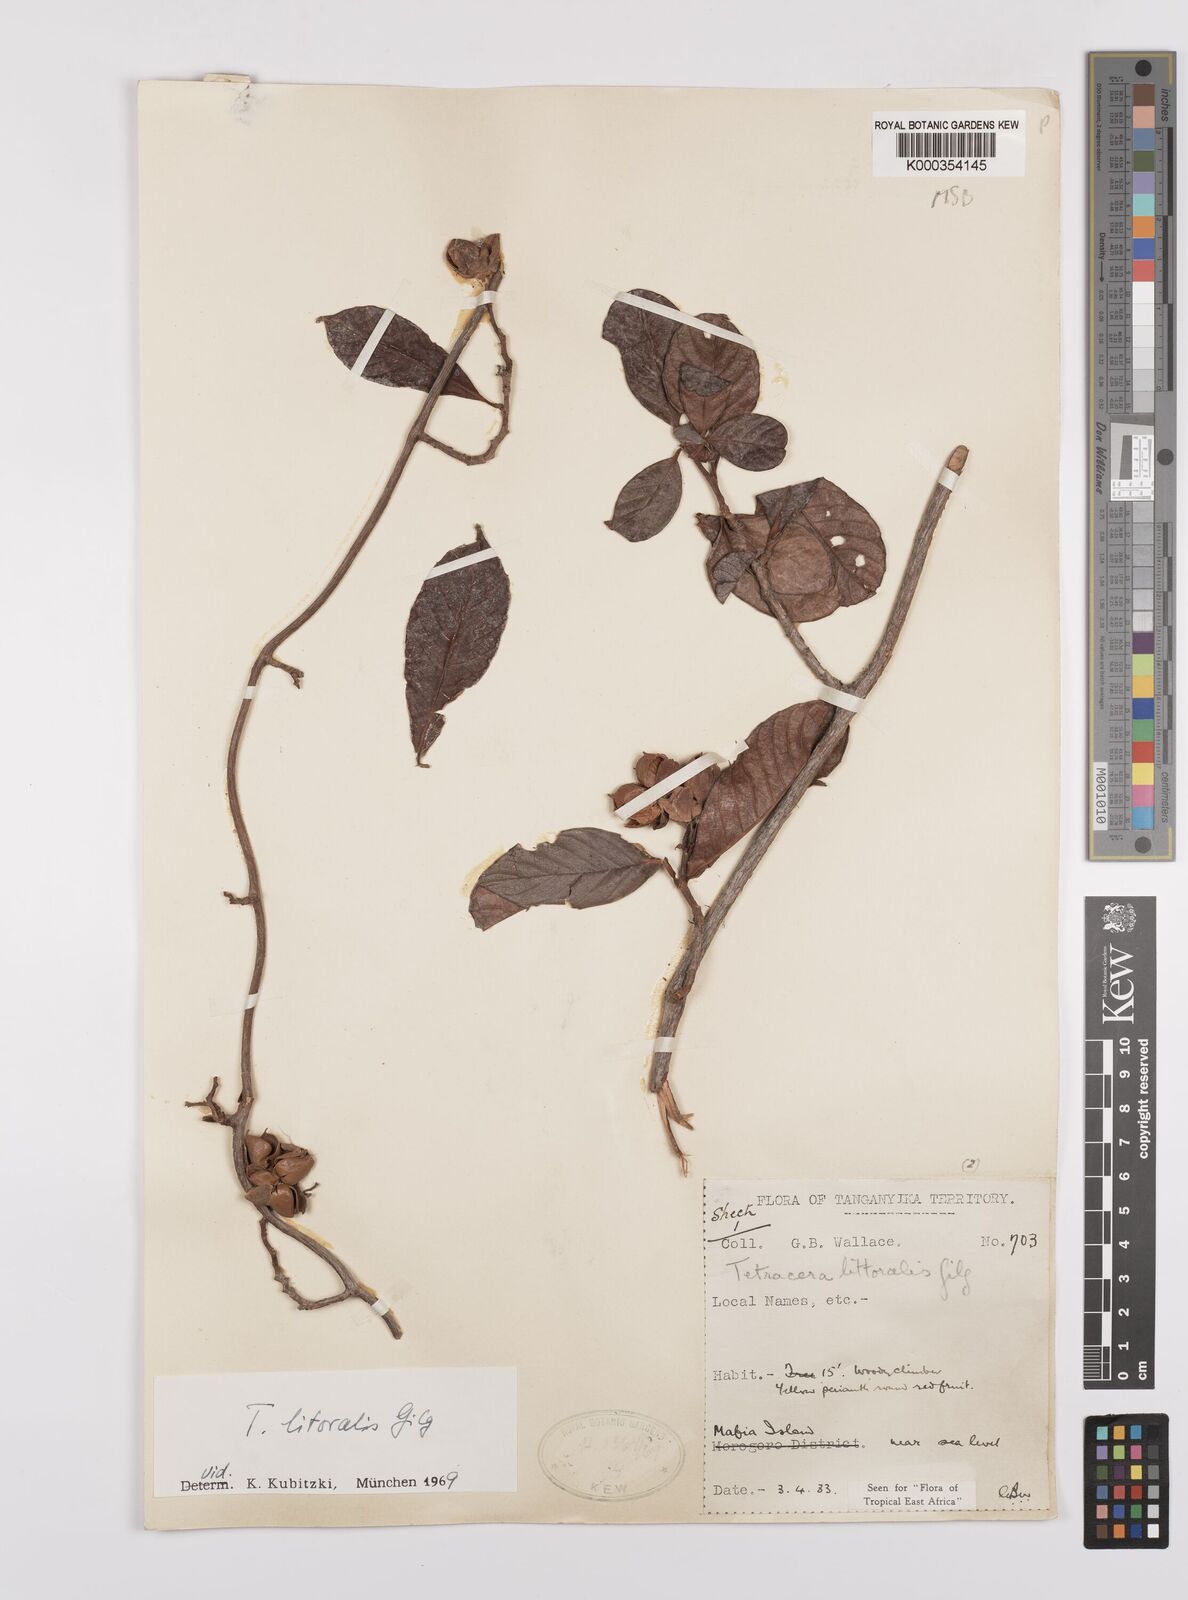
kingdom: Plantae
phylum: Tracheophyta
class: Magnoliopsida
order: Dilleniales
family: Dilleniaceae
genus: Tetracera
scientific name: Tetracera litoralis
